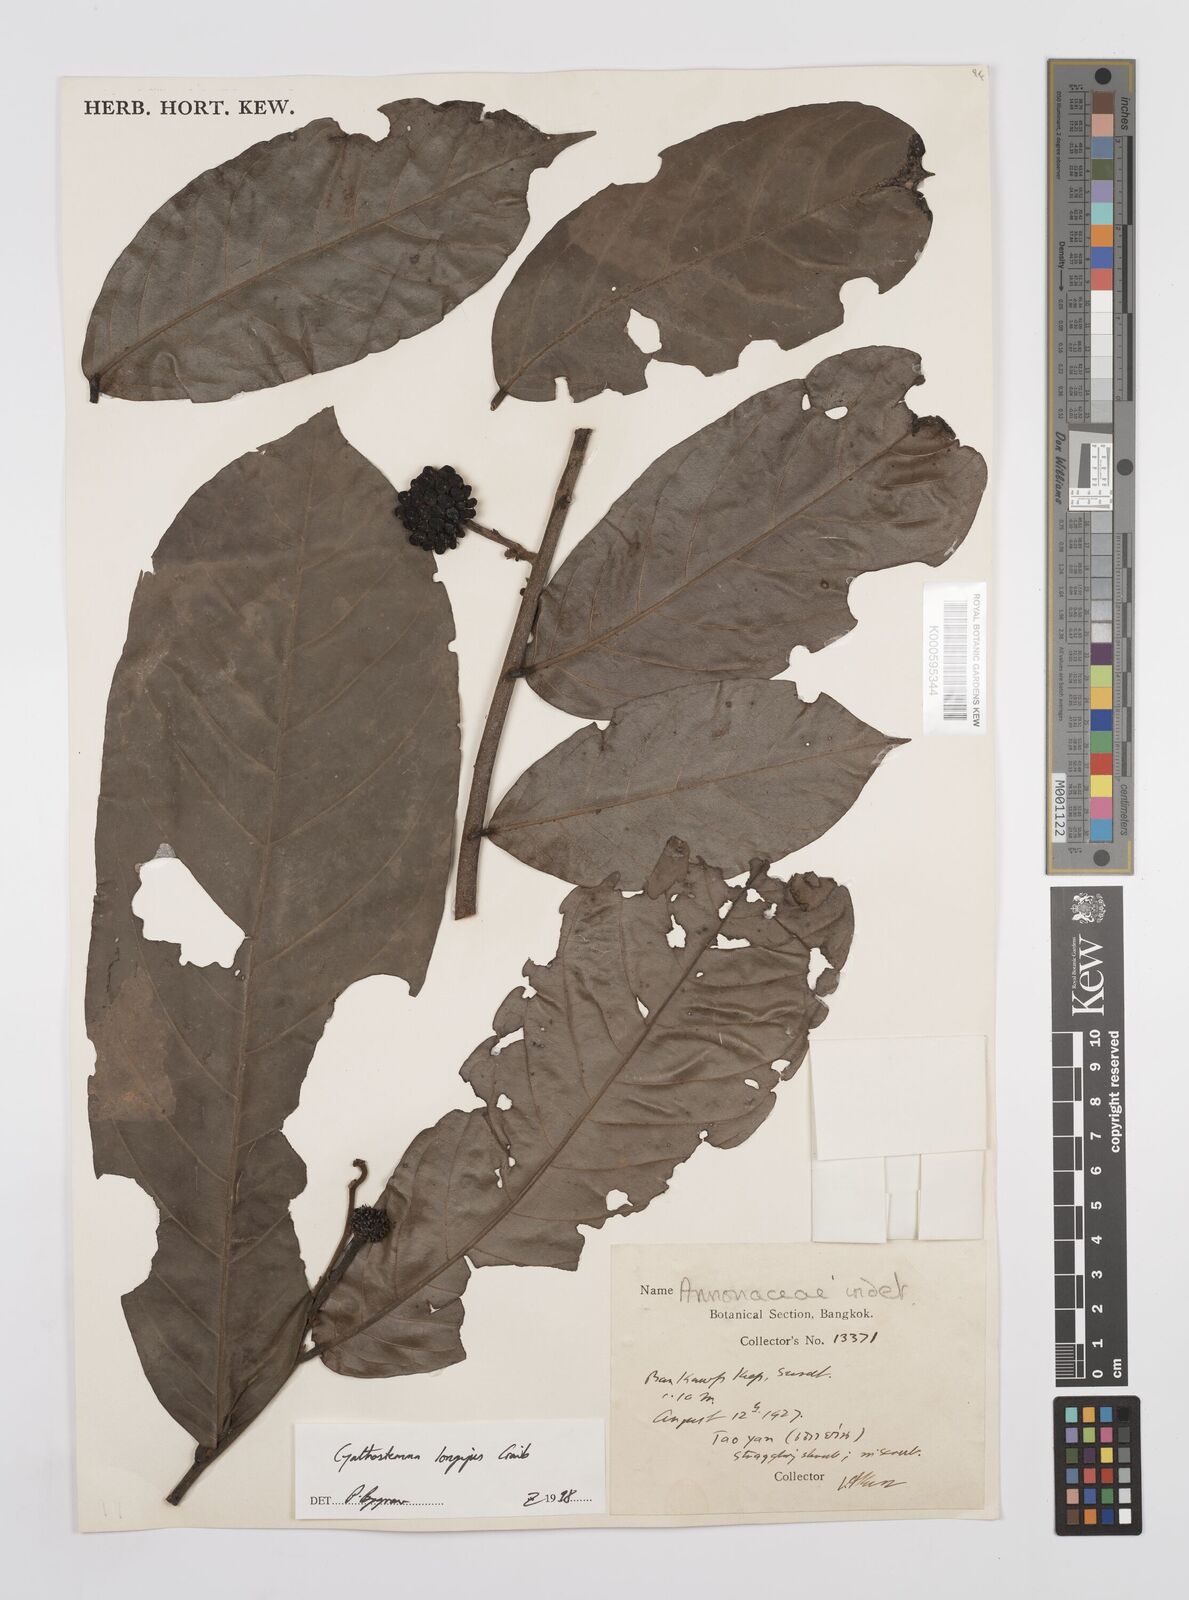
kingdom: Plantae
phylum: Tracheophyta
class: Magnoliopsida
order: Magnoliales
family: Annonaceae
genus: Uvaria
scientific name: Uvaria longipes
